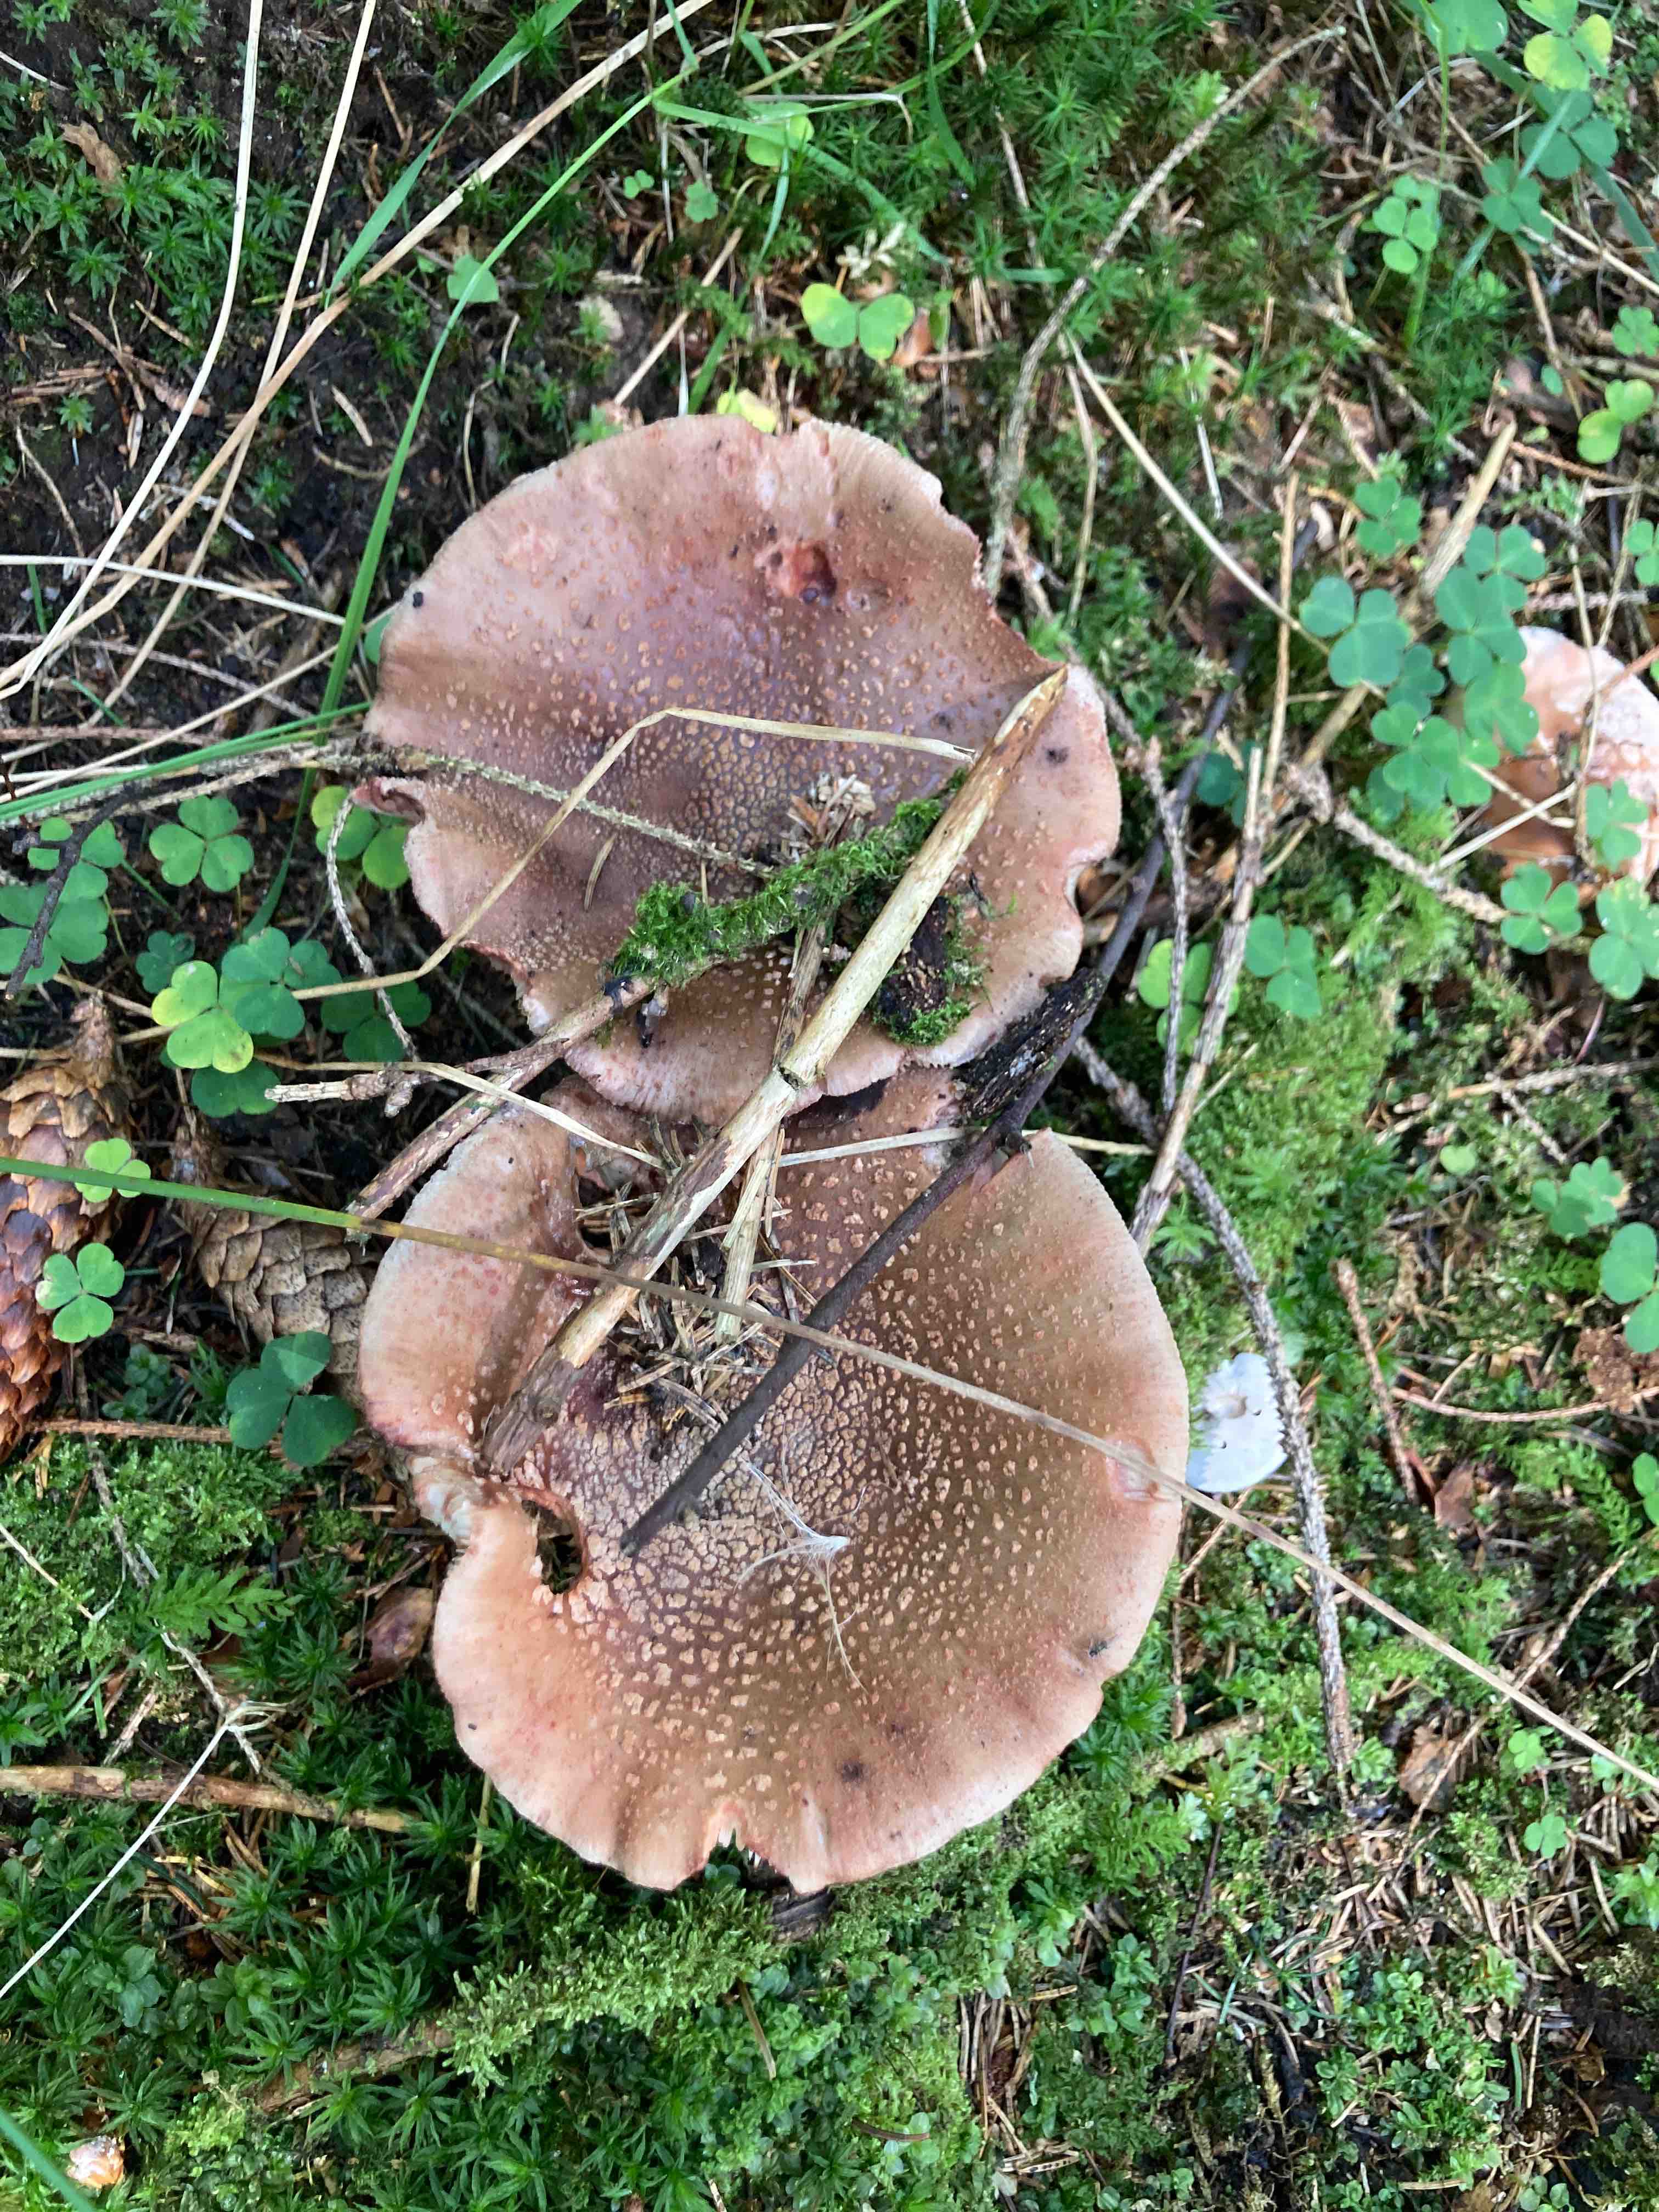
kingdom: Fungi
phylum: Basidiomycota
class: Agaricomycetes
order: Agaricales
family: Amanitaceae
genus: Amanita
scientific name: Amanita rubescens
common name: rødmende fluesvamp
